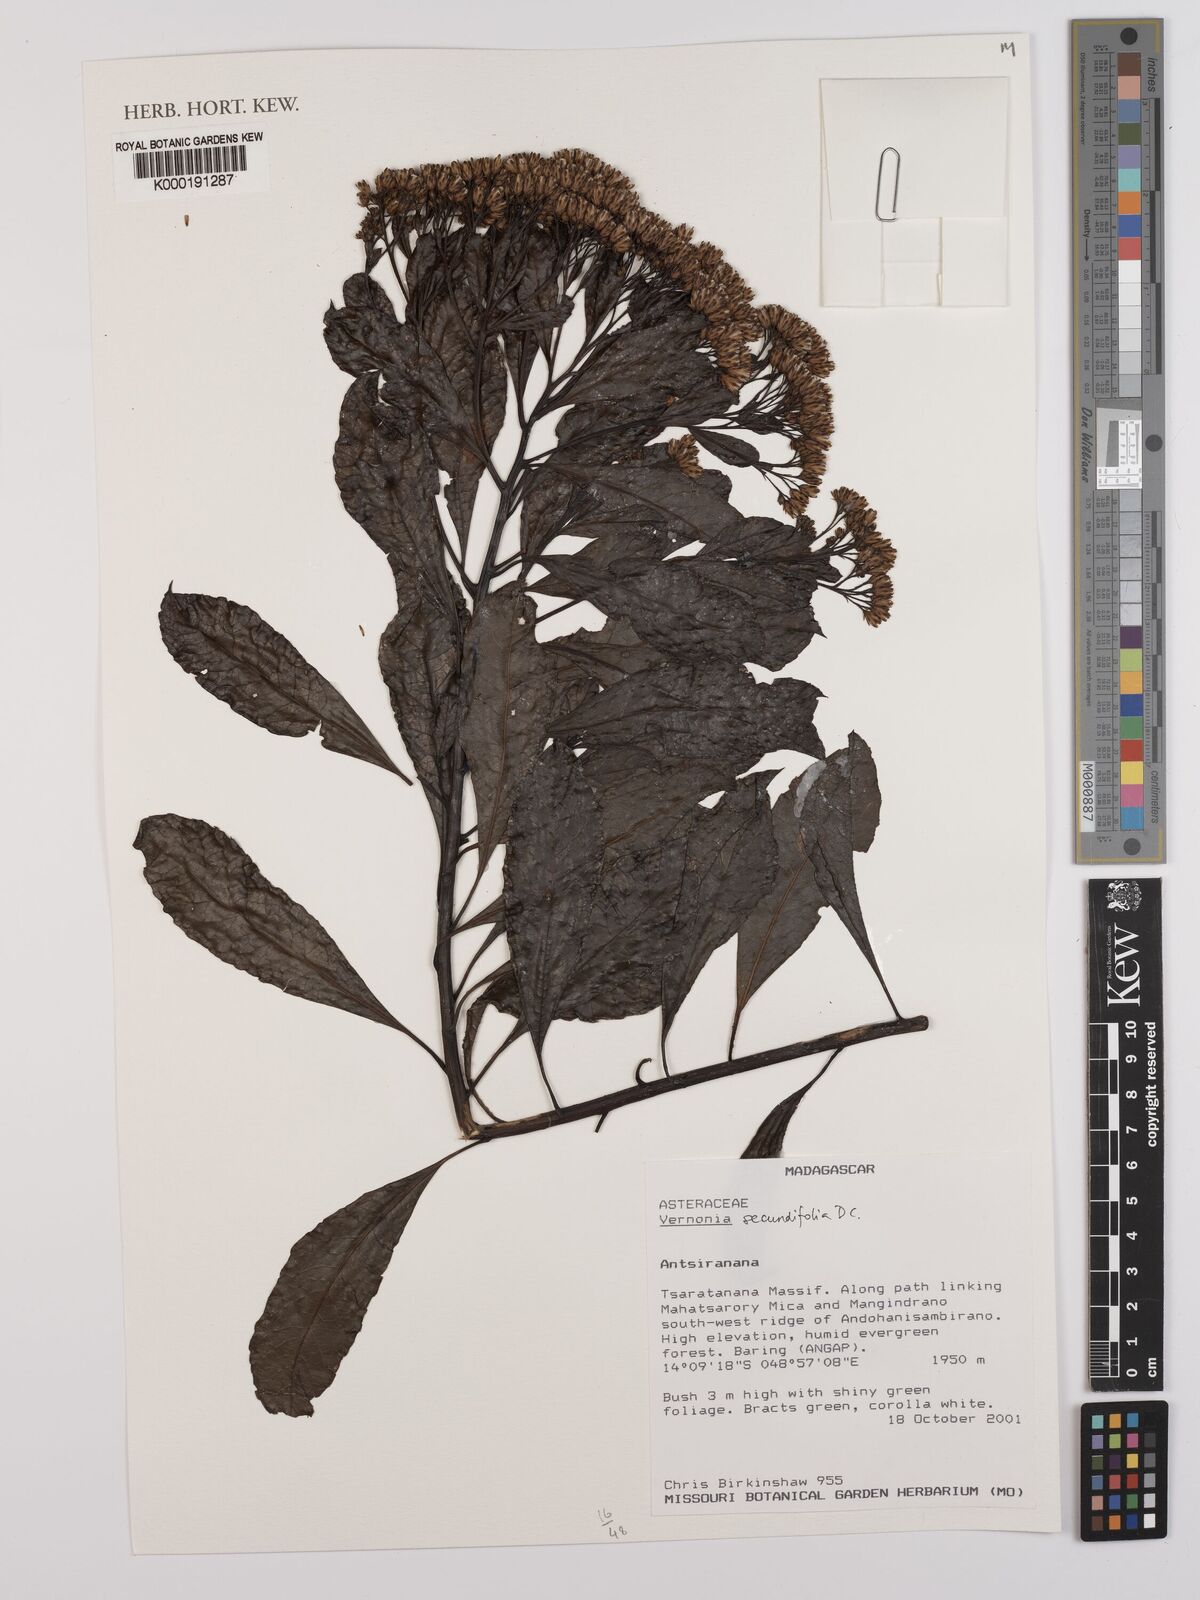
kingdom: Plantae
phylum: Tracheophyta
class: Magnoliopsida
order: Asterales
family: Asteraceae
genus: Gymnanthemum
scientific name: Gymnanthemum secundifolium
